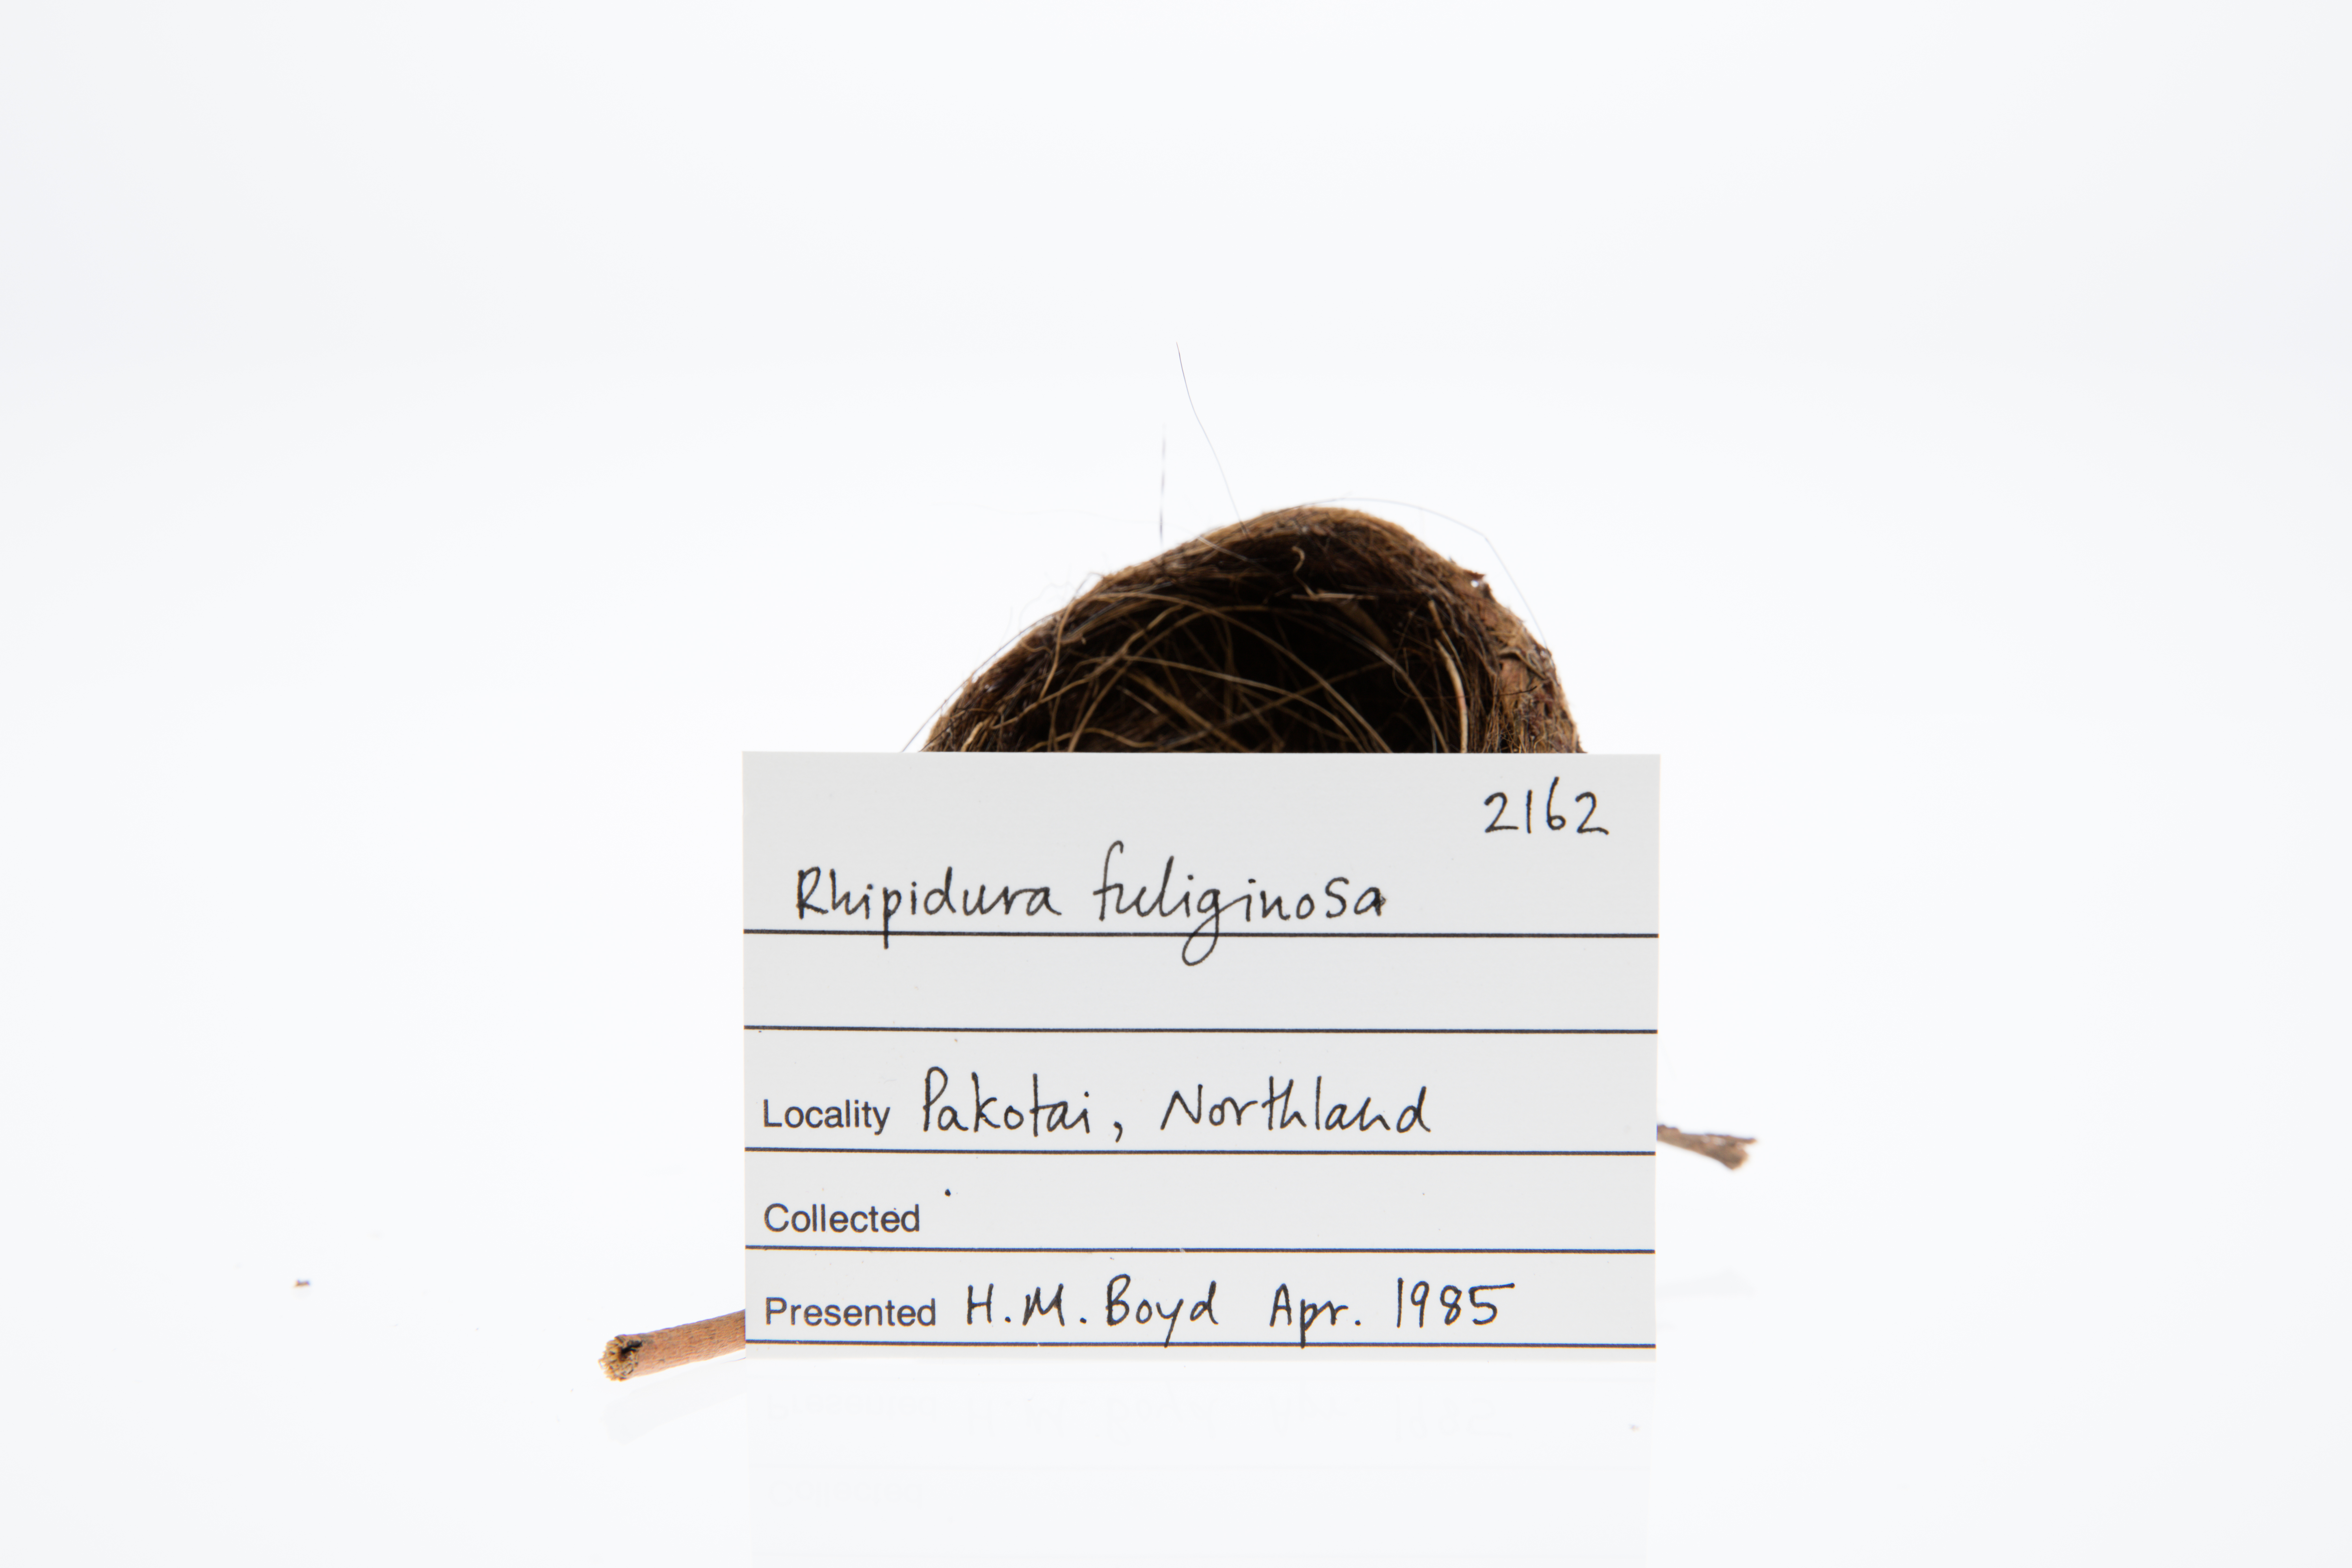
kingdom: Animalia
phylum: Chordata
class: Aves
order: Passeriformes
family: Rhipiduridae
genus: Rhipidura
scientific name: Rhipidura fuliginosa
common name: New zealand fantail
